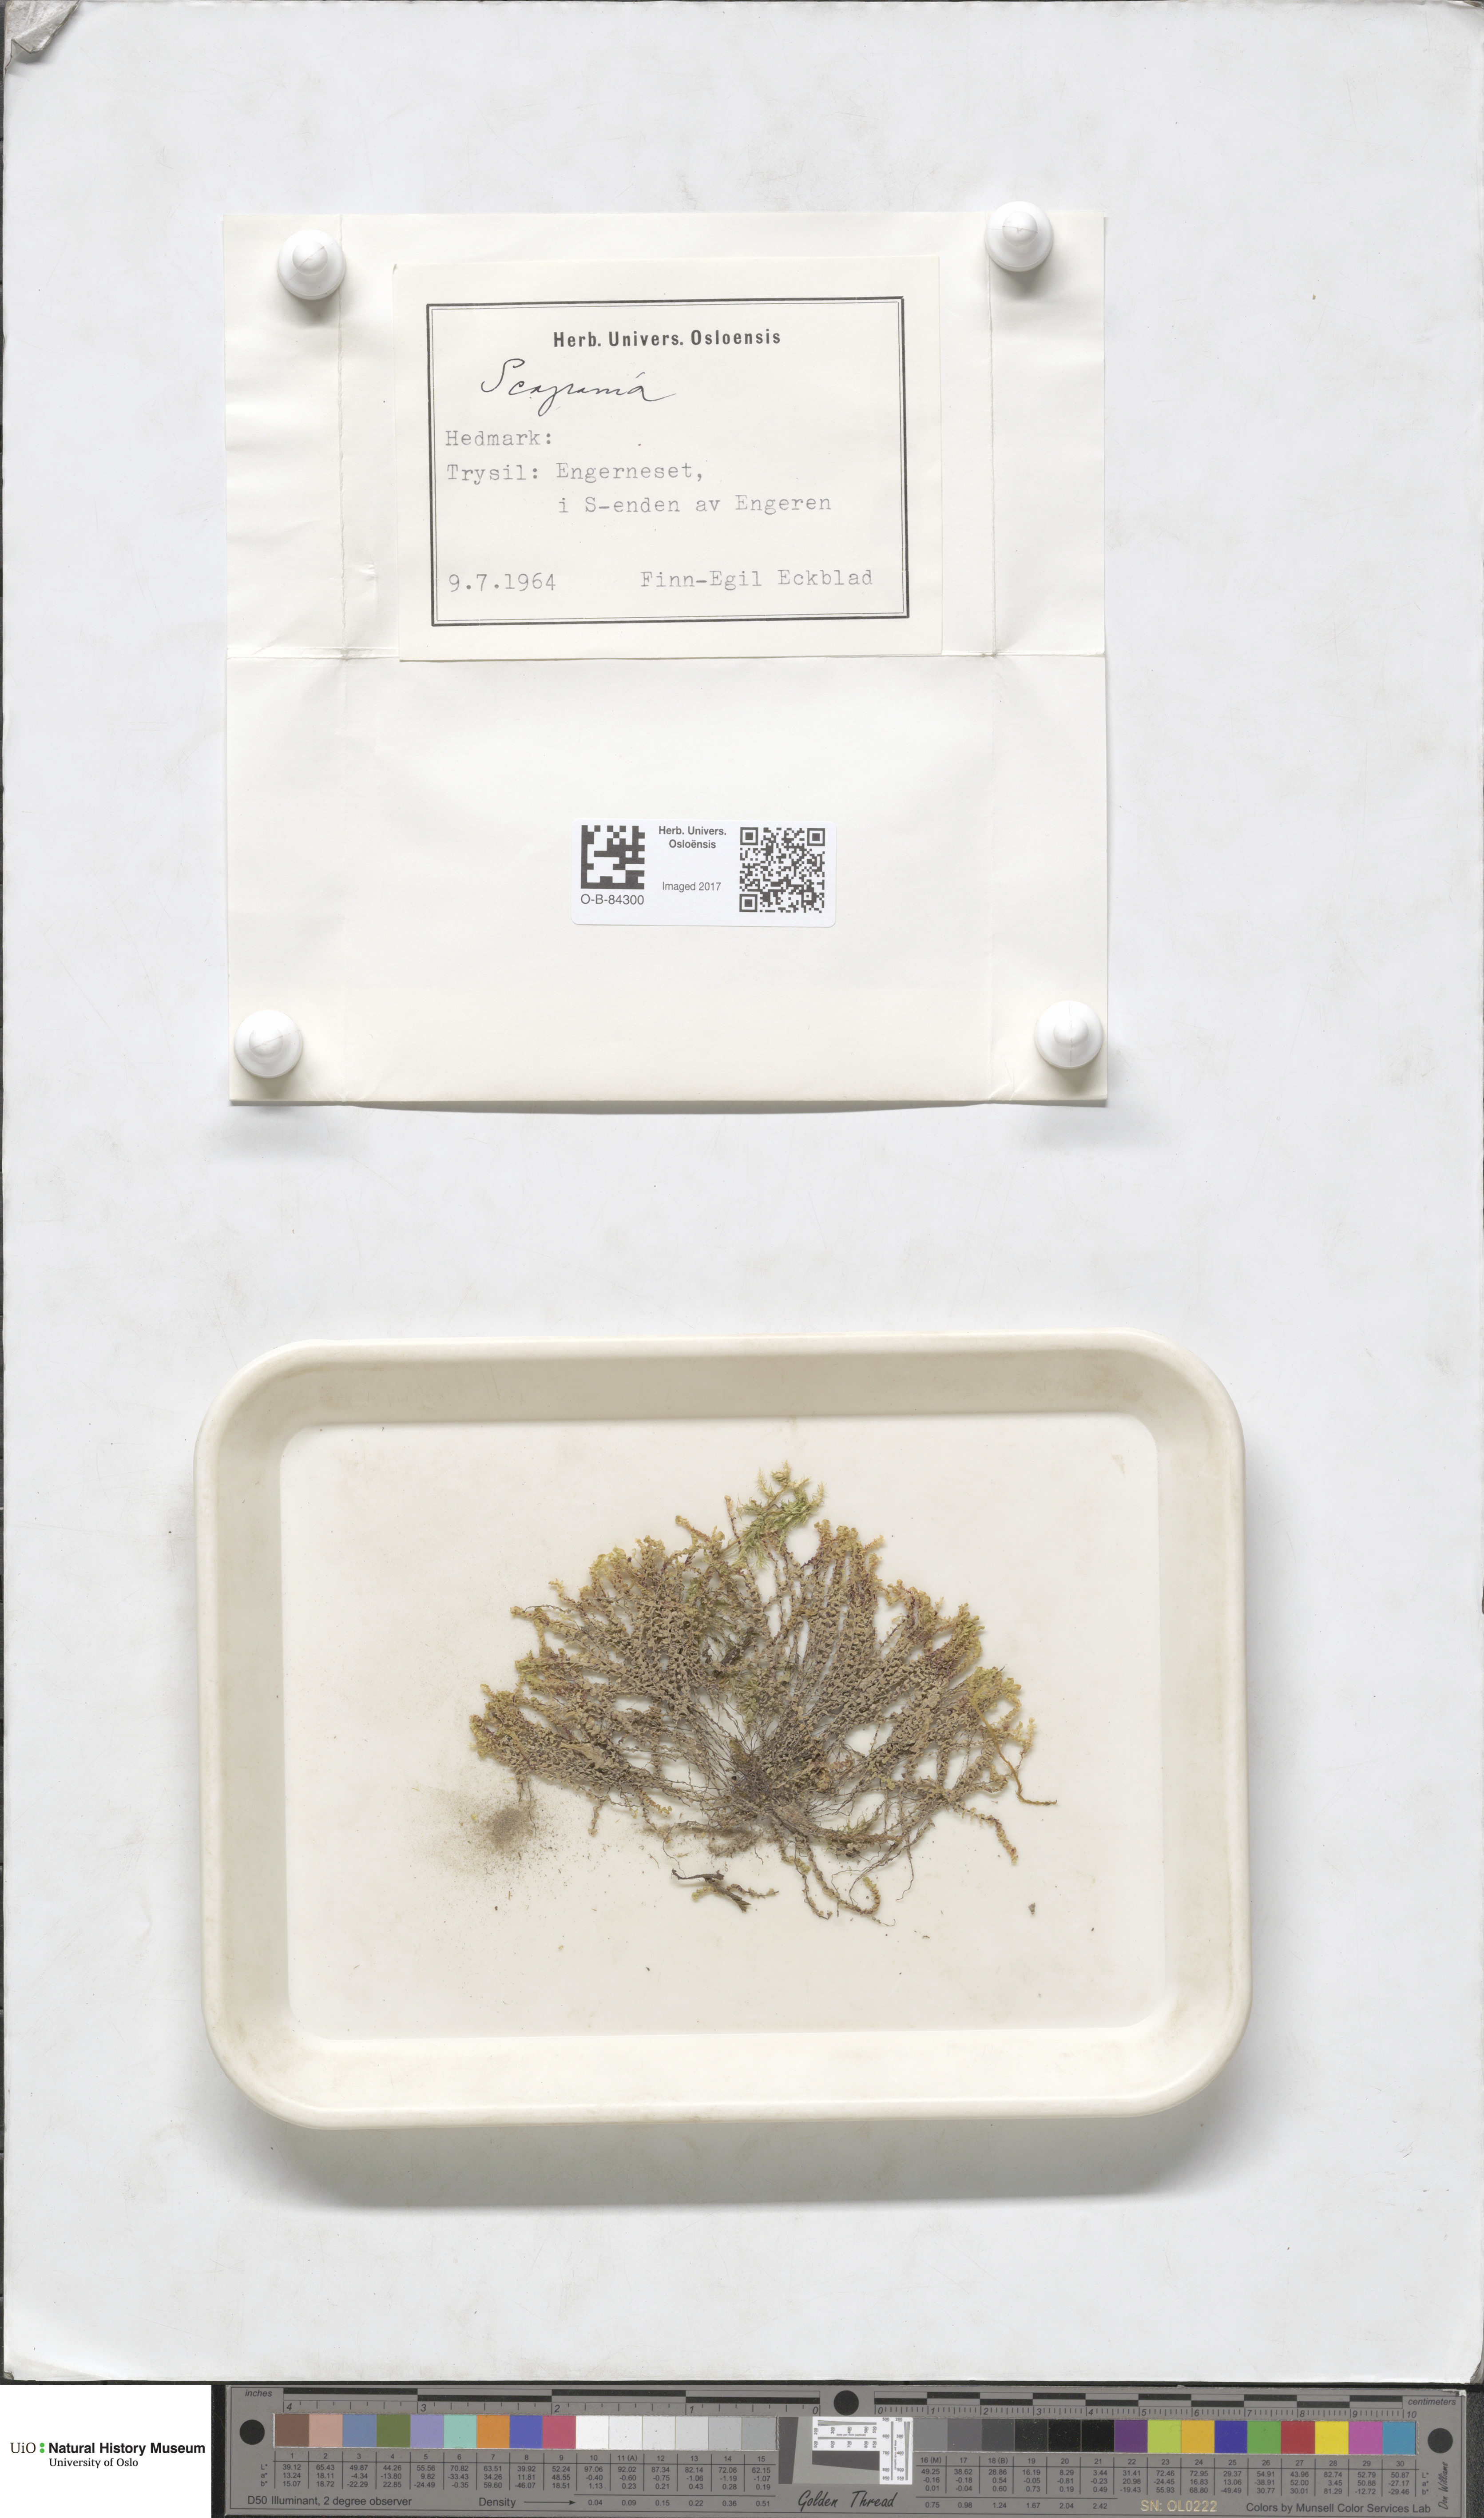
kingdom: Plantae
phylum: Marchantiophyta
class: Jungermanniopsida
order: Jungermanniales
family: Scapaniaceae
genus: Scapania
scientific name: Scapania
